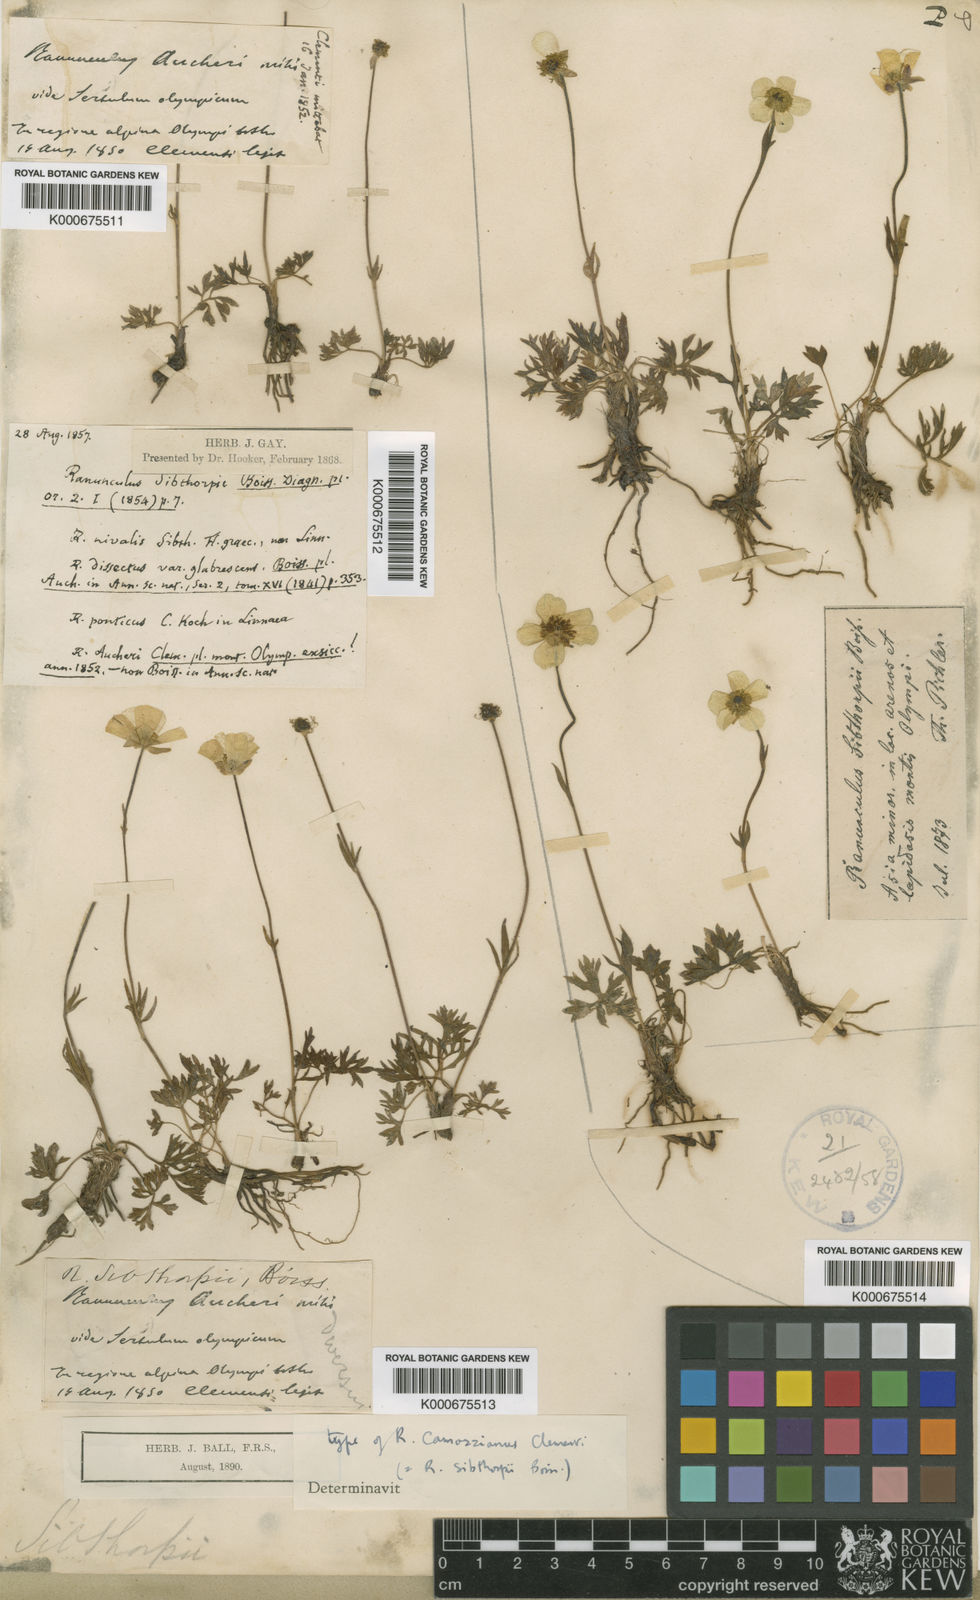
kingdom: Plantae
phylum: Tracheophyta
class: Magnoliopsida
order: Ranunculales
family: Ranunculaceae
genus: Ranunculus
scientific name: Ranunculus dissectus
